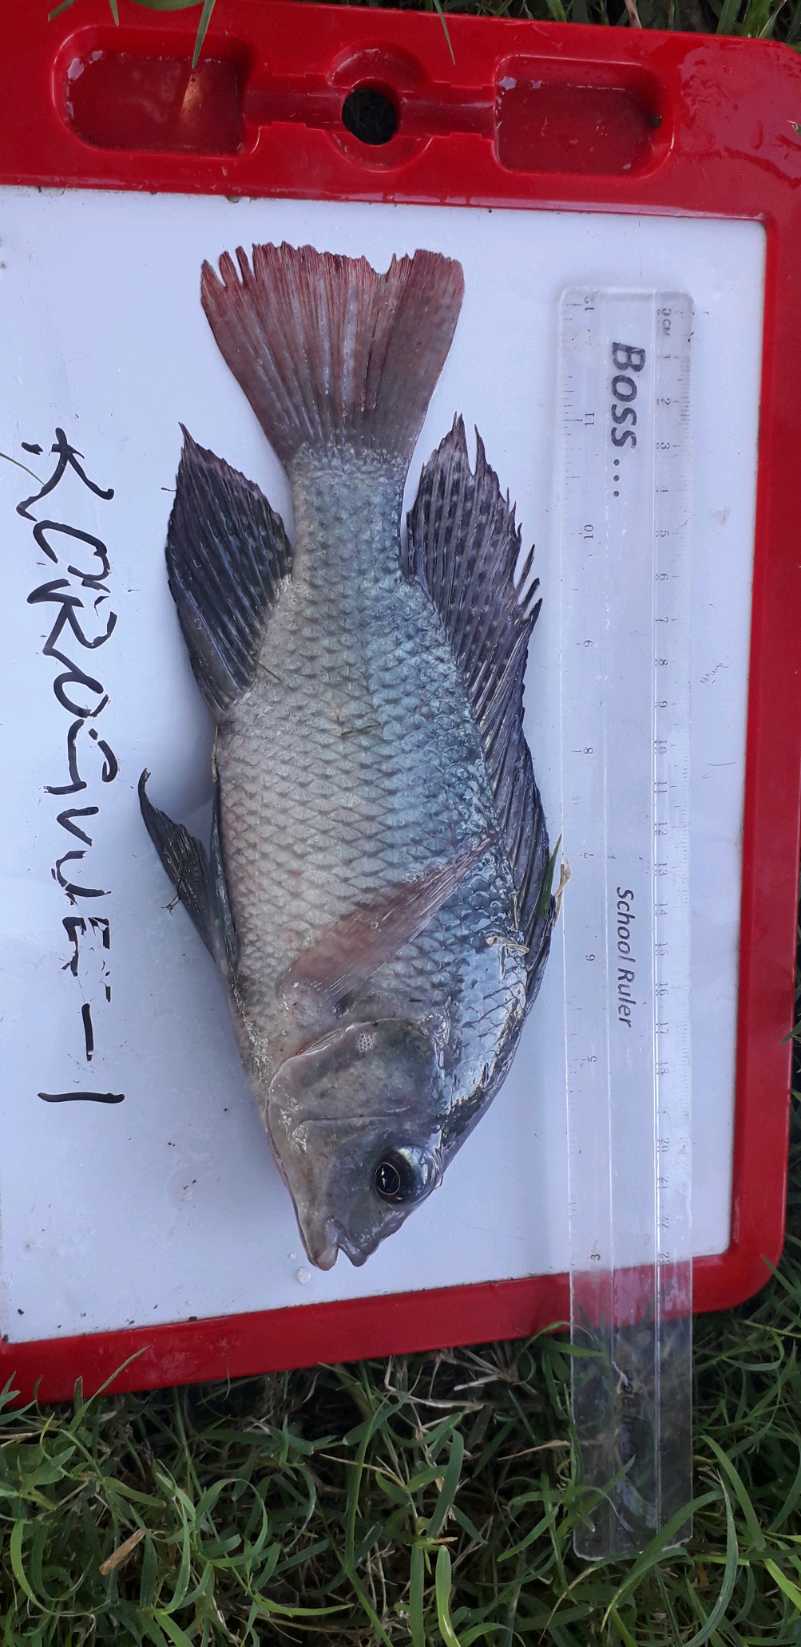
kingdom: Animalia
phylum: Chordata
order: Perciformes
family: Cichlidae
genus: Oreochromis
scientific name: Oreochromis
